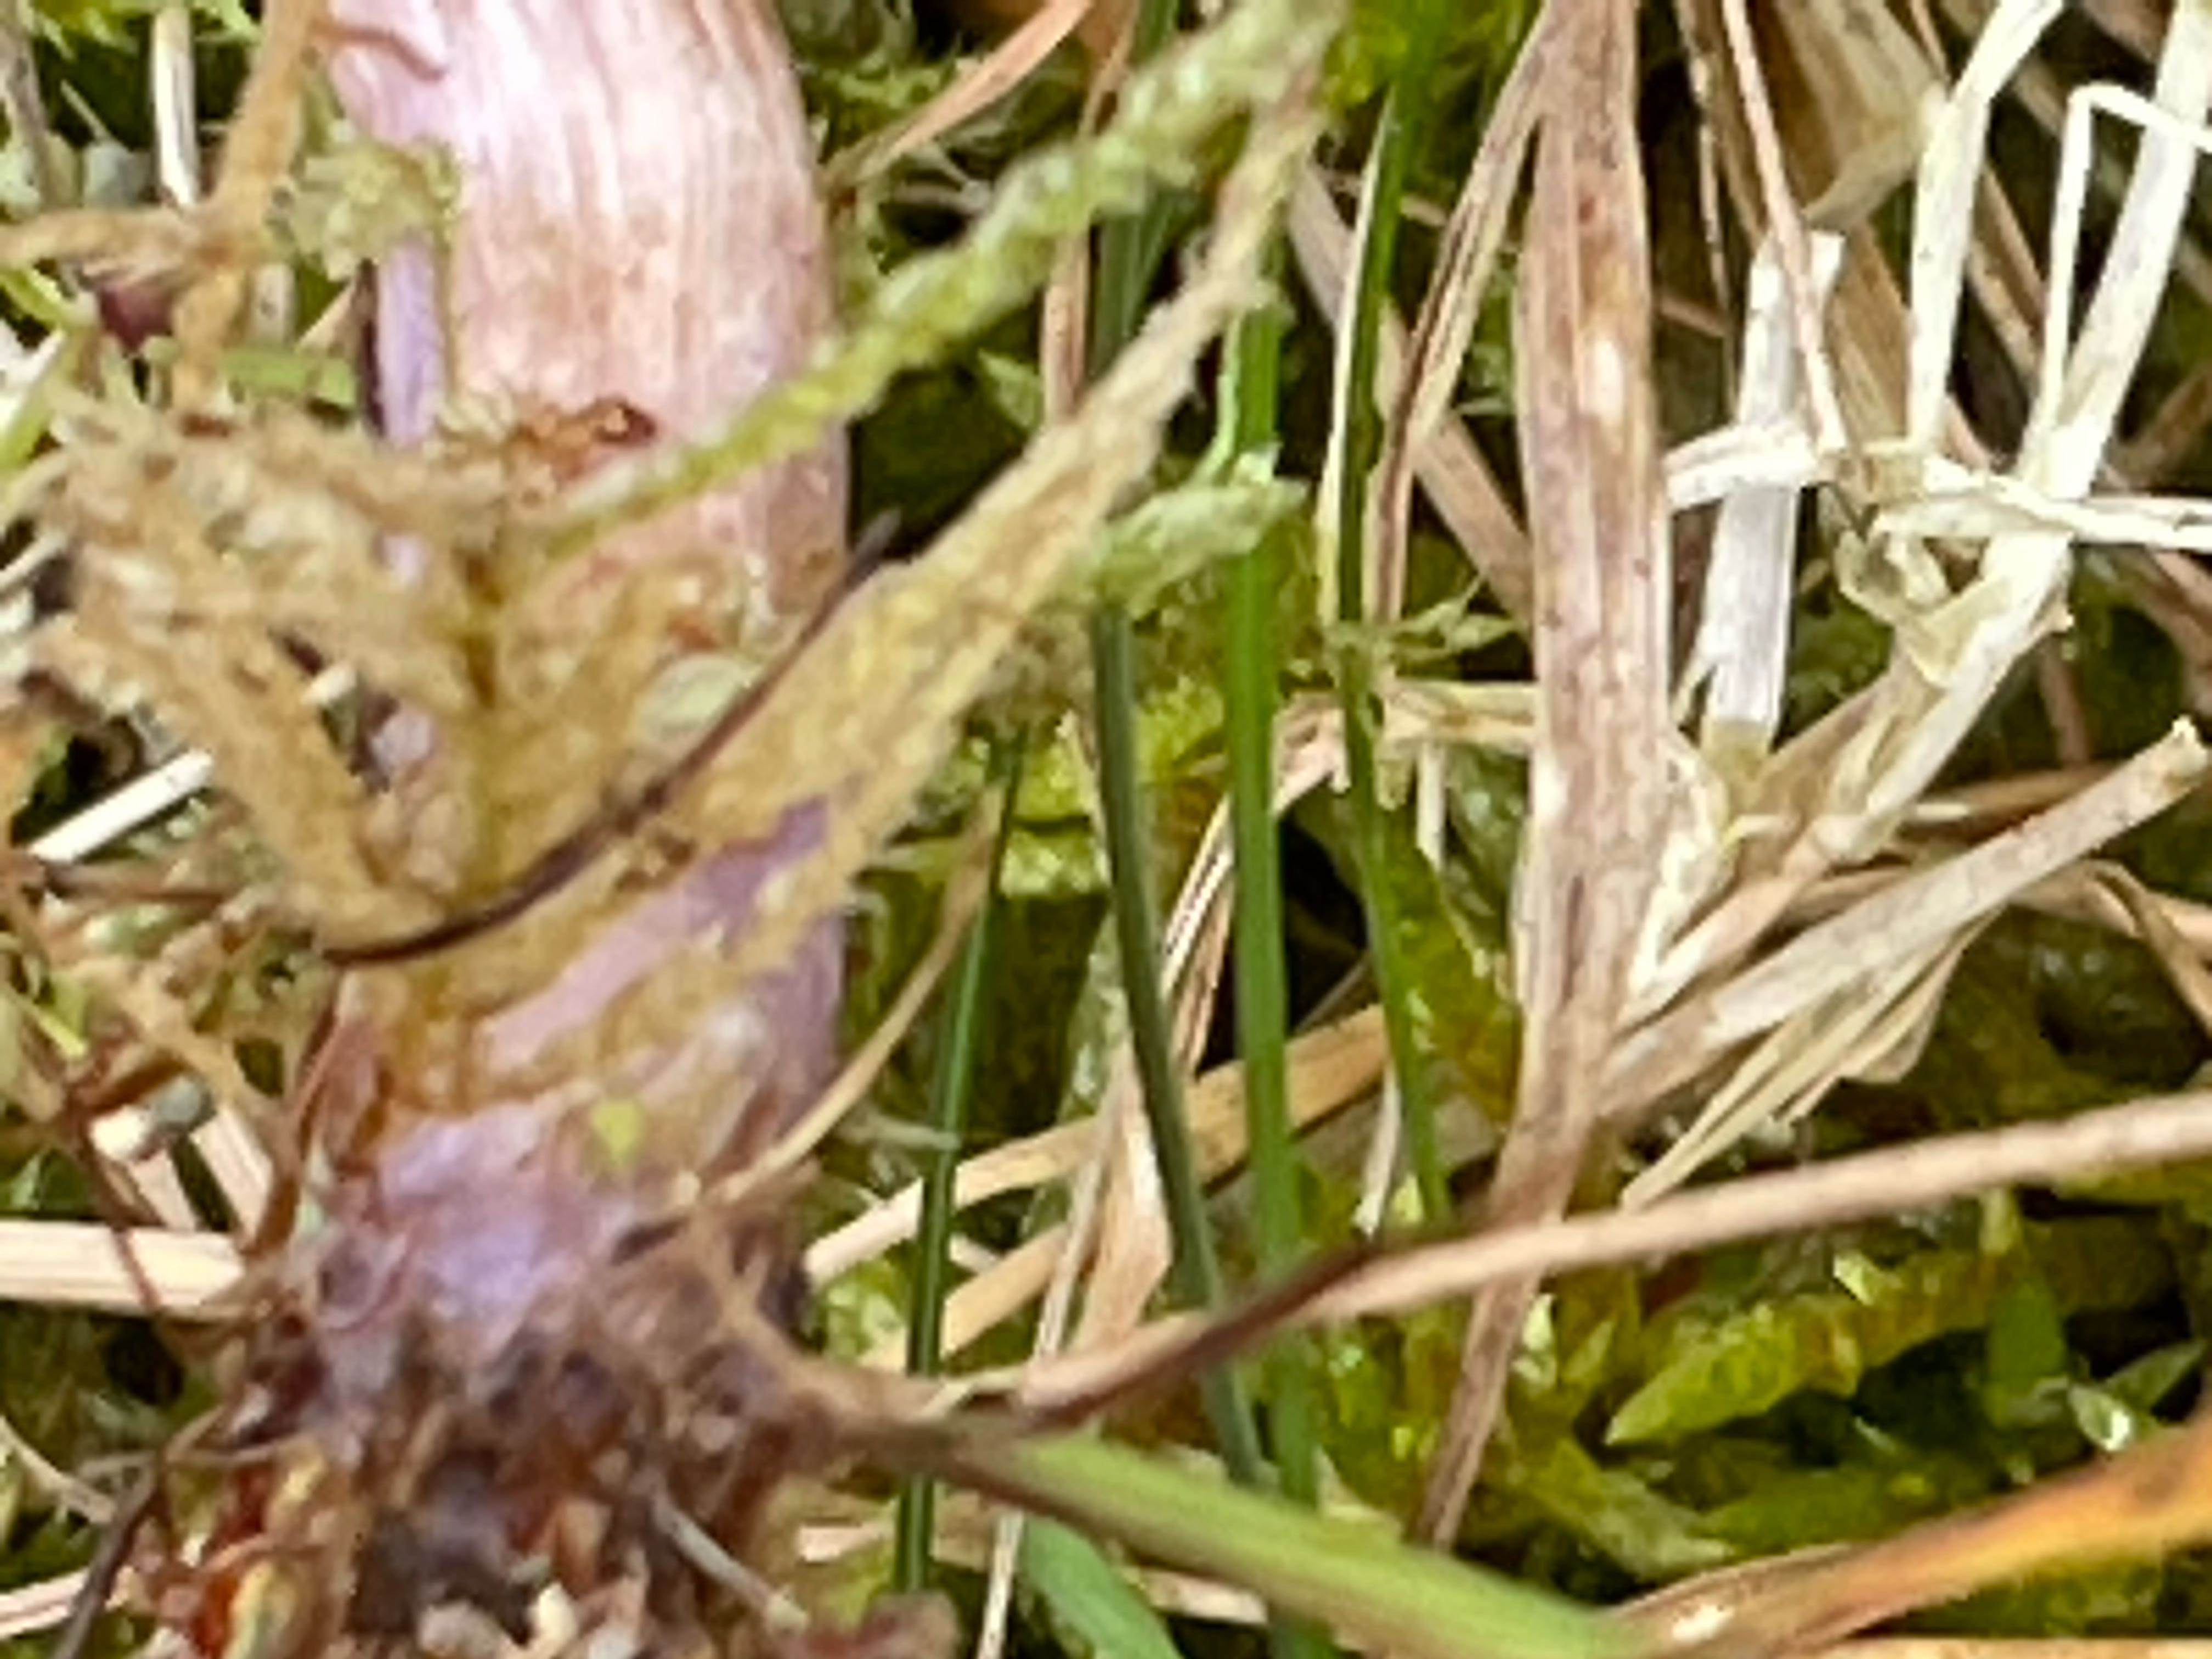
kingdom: Fungi
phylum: Basidiomycota
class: Agaricomycetes
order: Agaricales
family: Hydnangiaceae
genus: Laccaria
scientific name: Laccaria bicolor
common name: tvefarvet ametysthat
